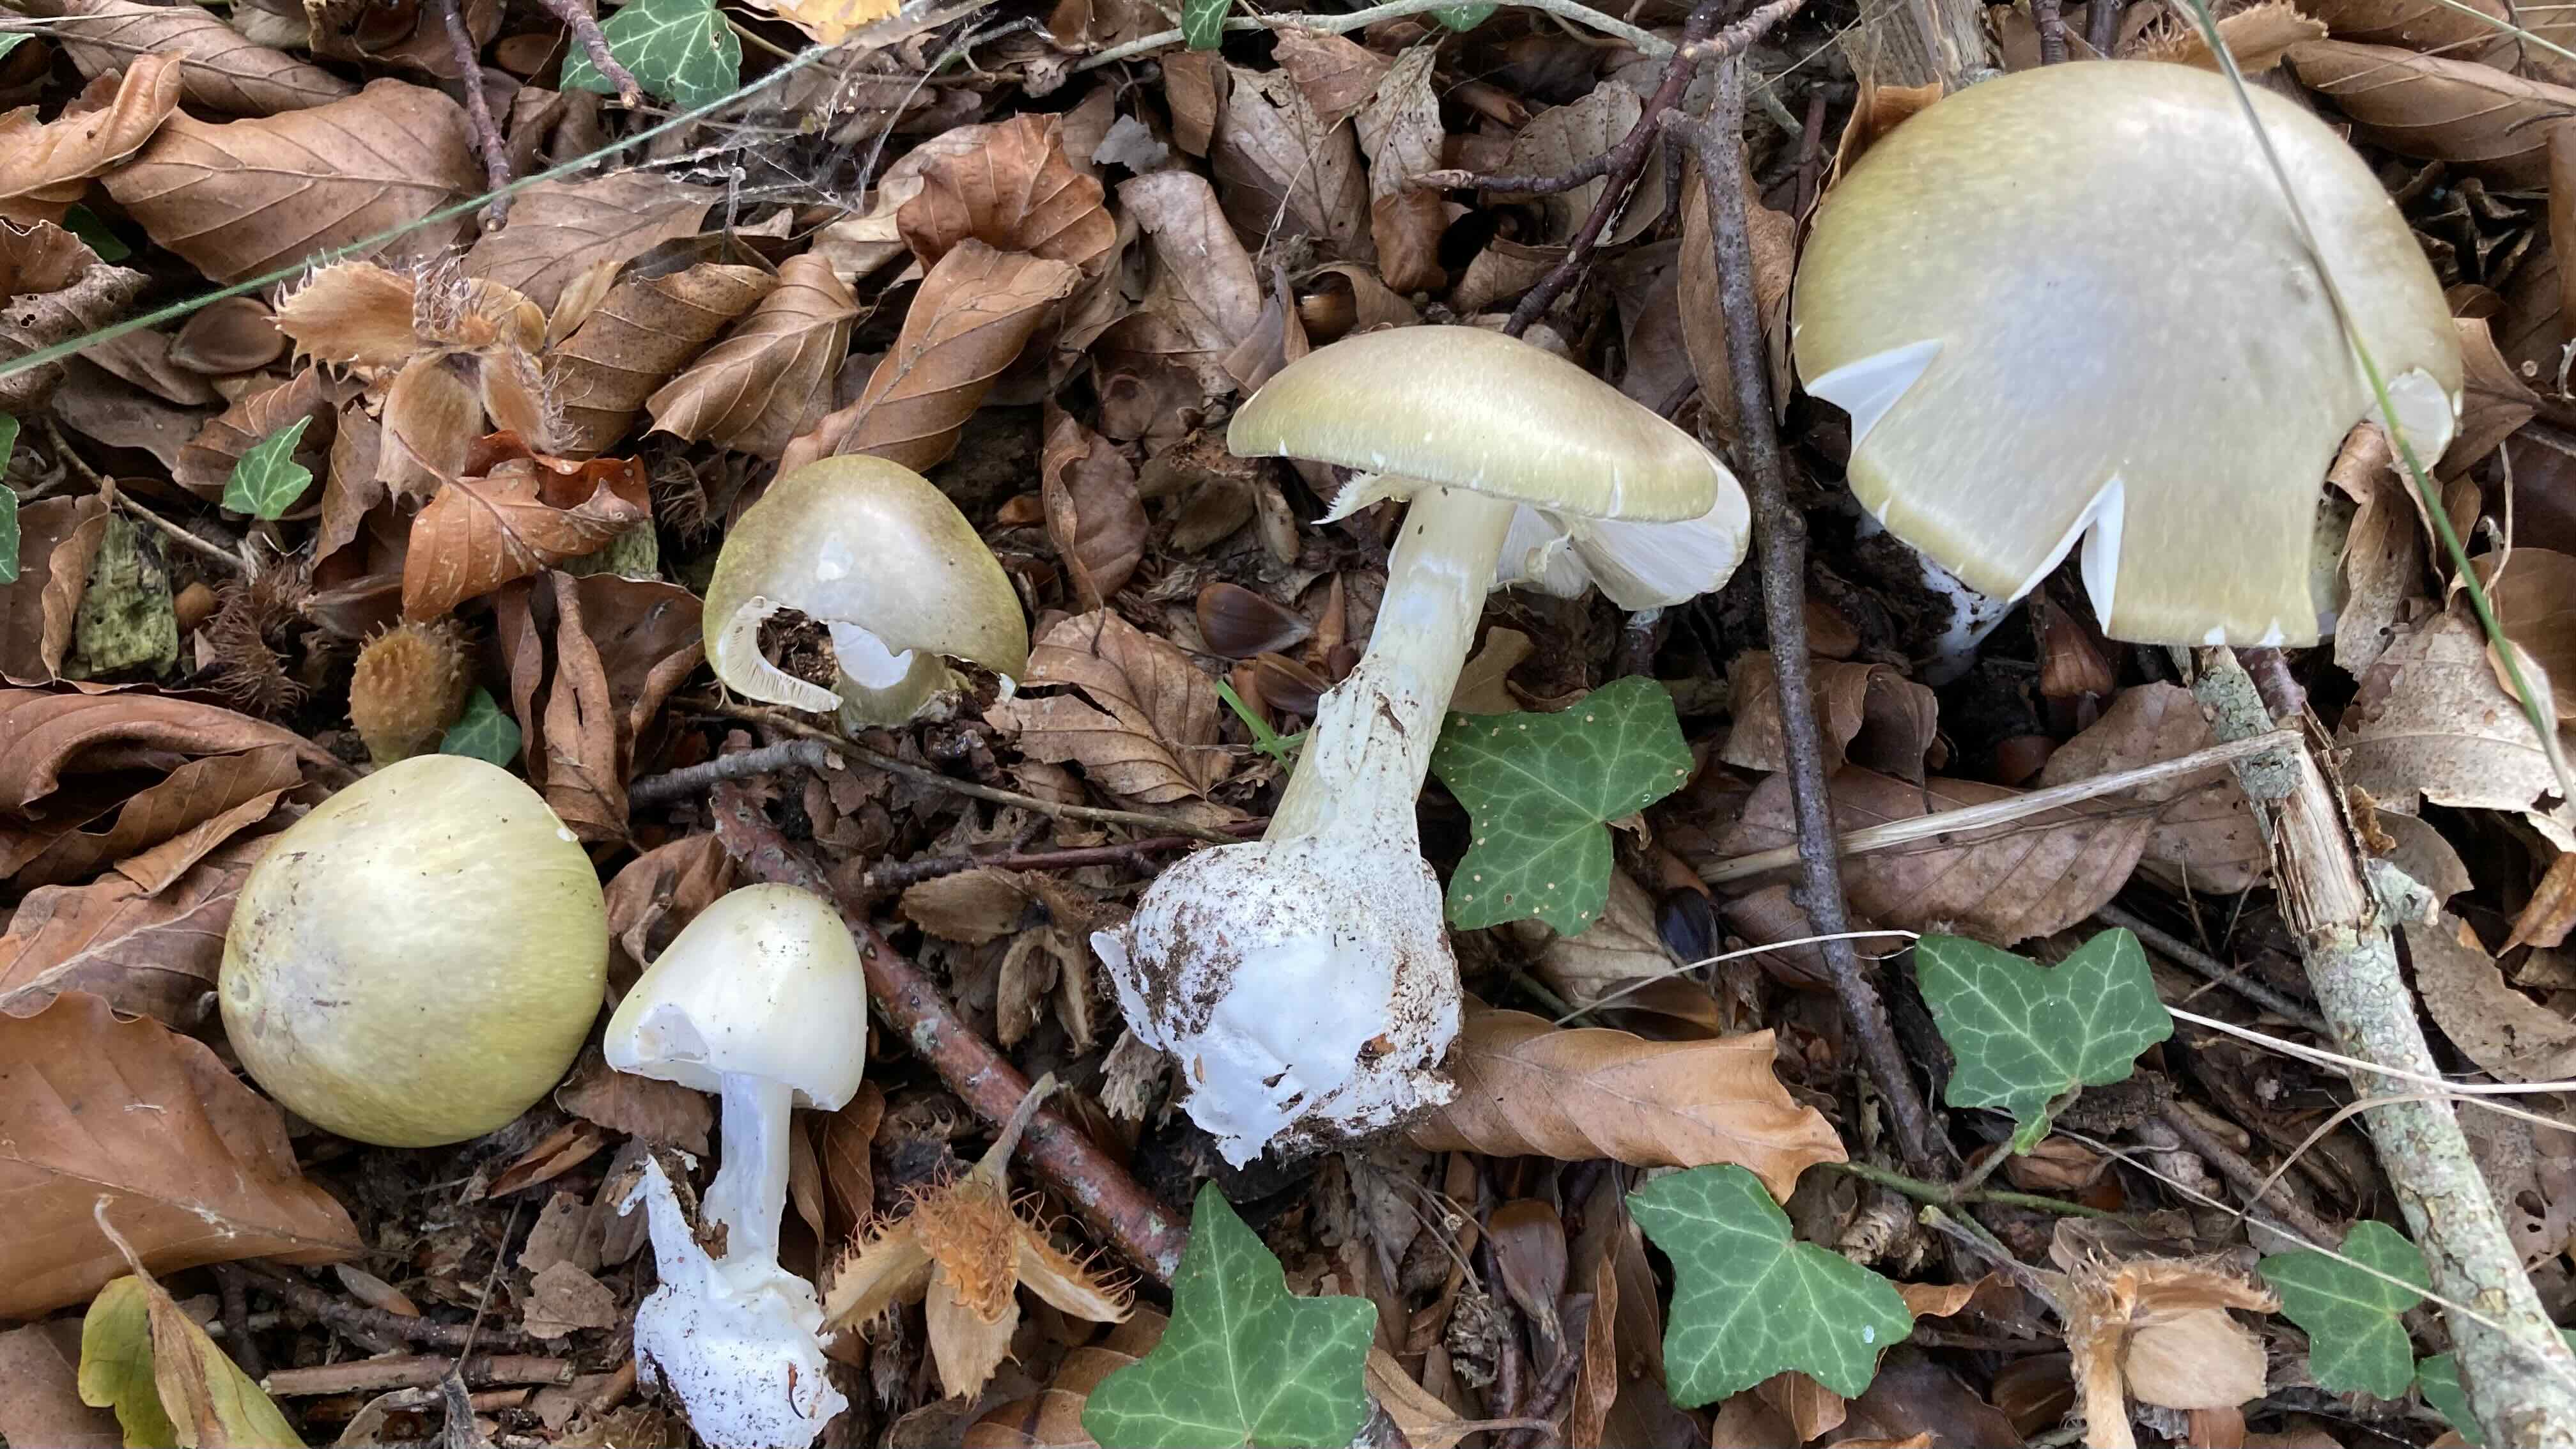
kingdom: Fungi
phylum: Basidiomycota
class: Agaricomycetes
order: Agaricales
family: Amanitaceae
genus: Amanita
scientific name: Amanita phalloides
